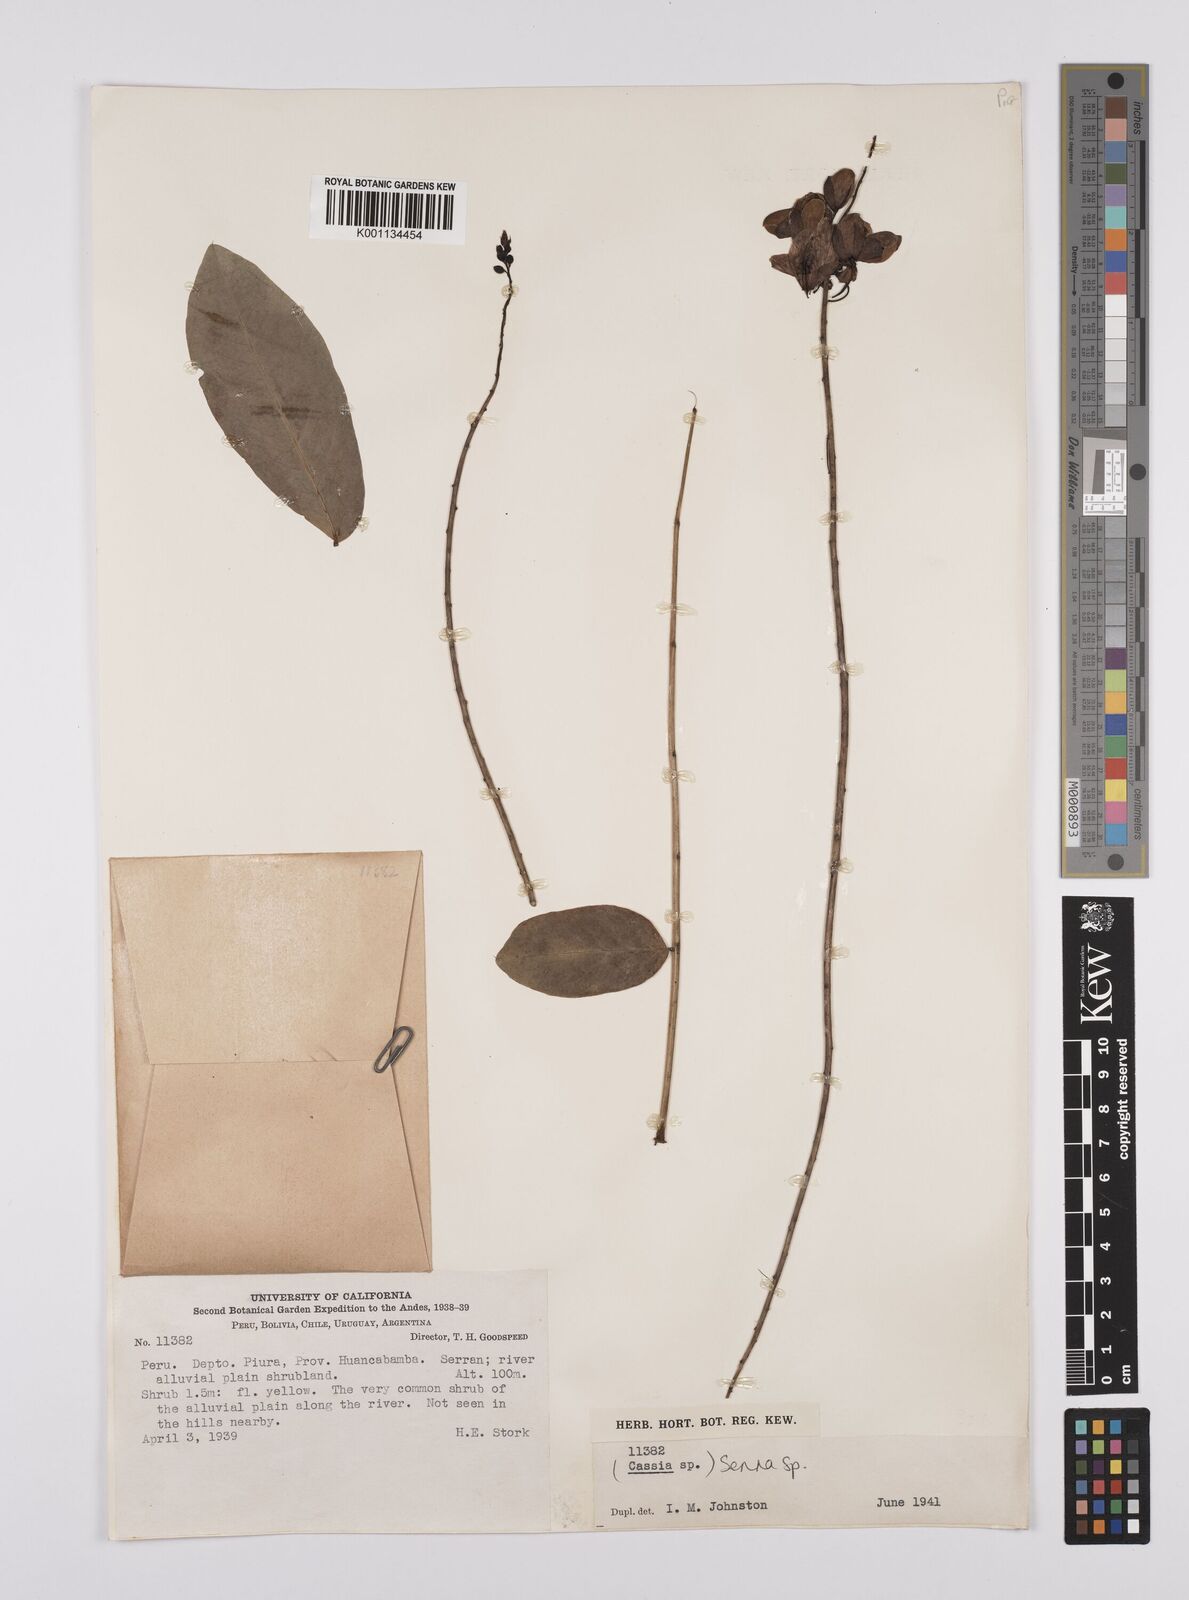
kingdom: Plantae
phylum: Tracheophyta
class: Magnoliopsida
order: Fabales
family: Fabaceae
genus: Senna
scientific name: Senna
